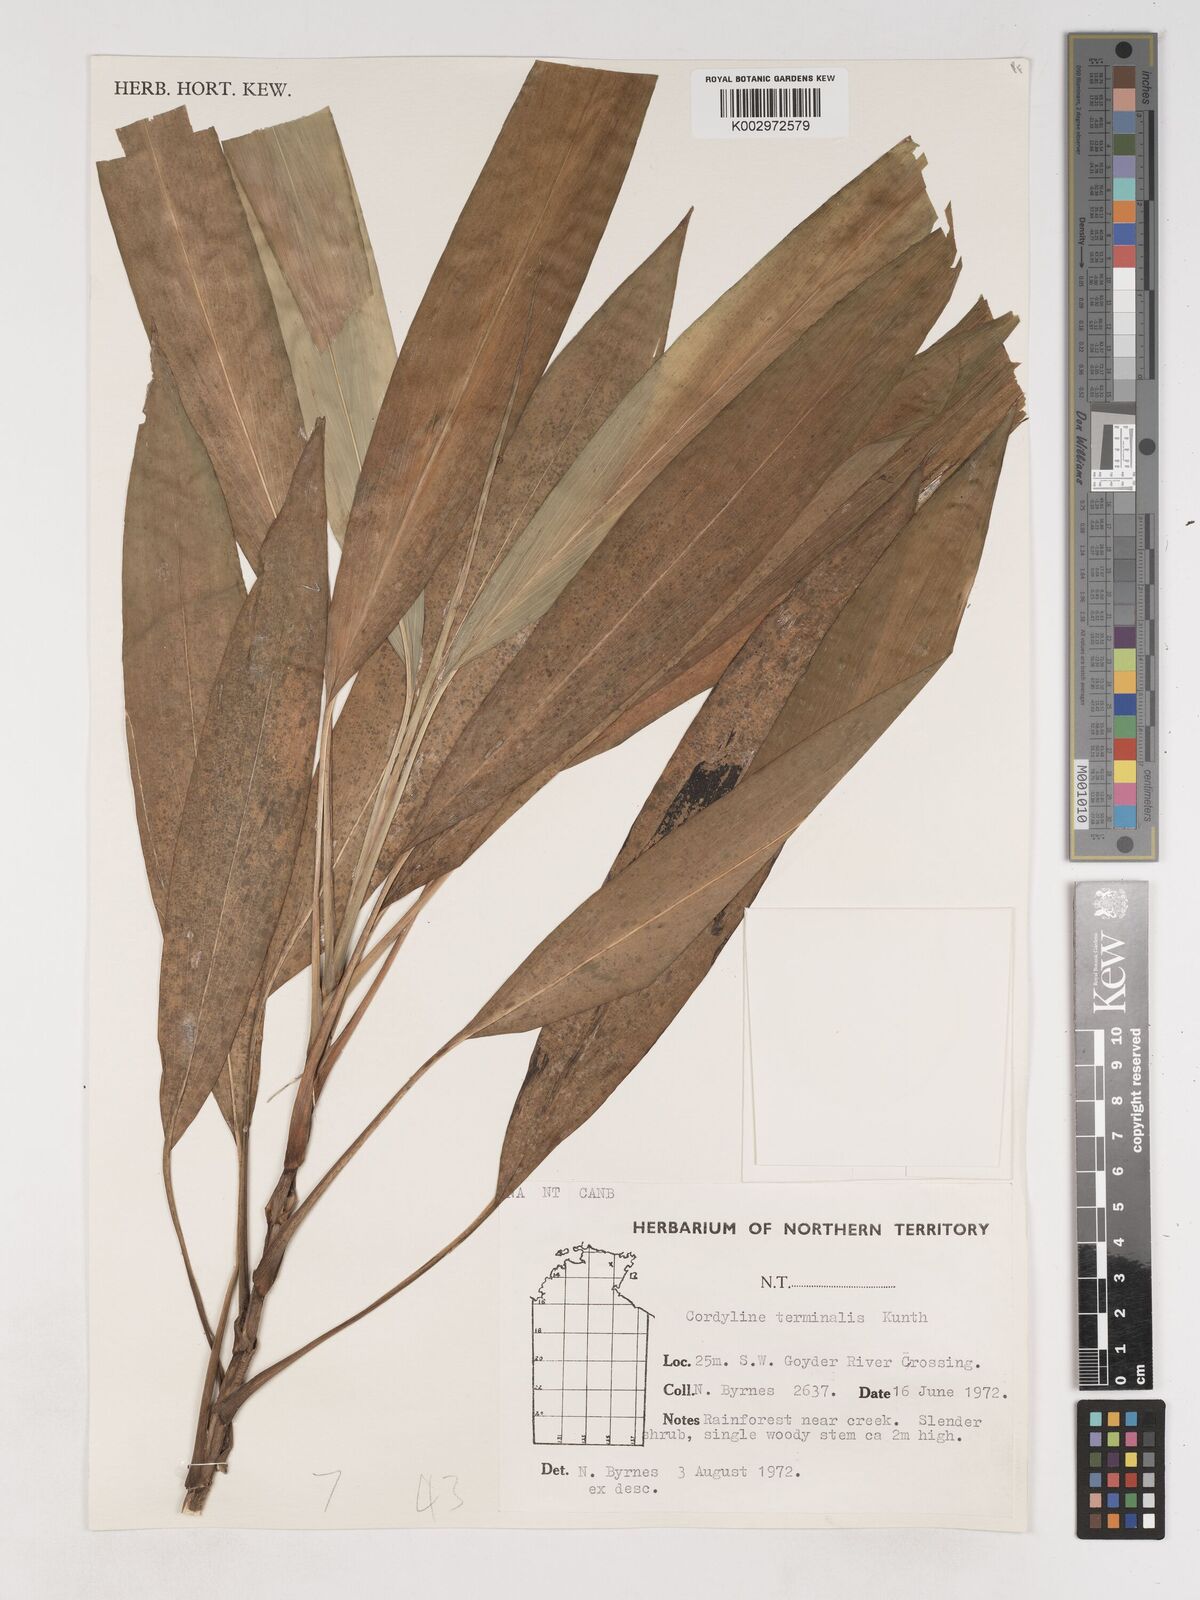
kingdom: Plantae
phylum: Tracheophyta
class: Liliopsida
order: Asparagales
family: Asparagaceae
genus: Cordyline
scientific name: Cordyline fruticosa
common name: Good-luck-plant
